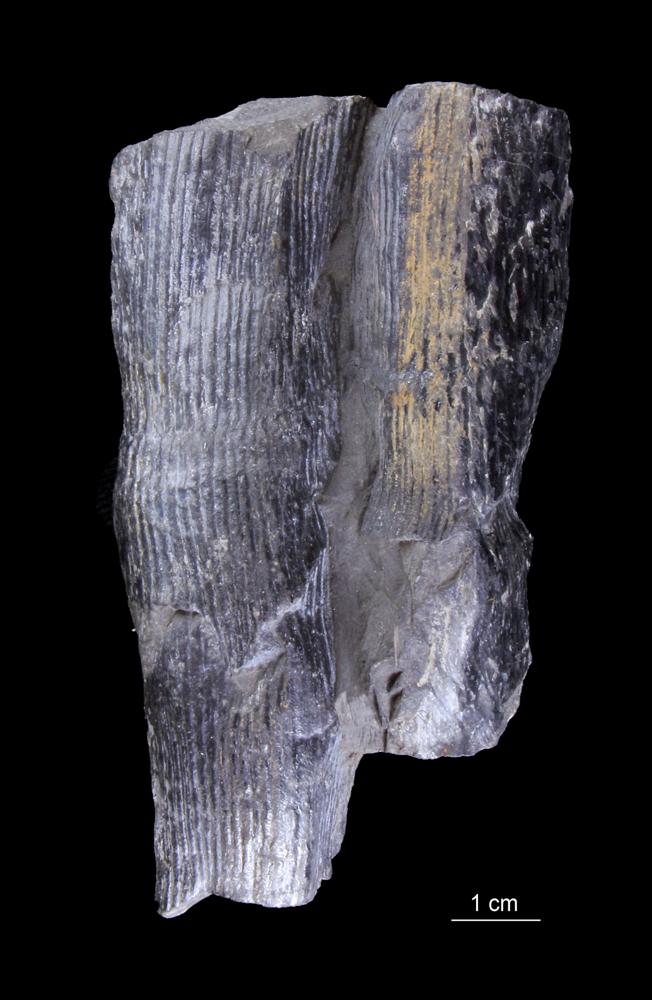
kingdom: Plantae
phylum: Tracheophyta
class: Polypodiopsida
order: Equisetales
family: Calamitaceae
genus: Calamites
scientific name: Calamites
